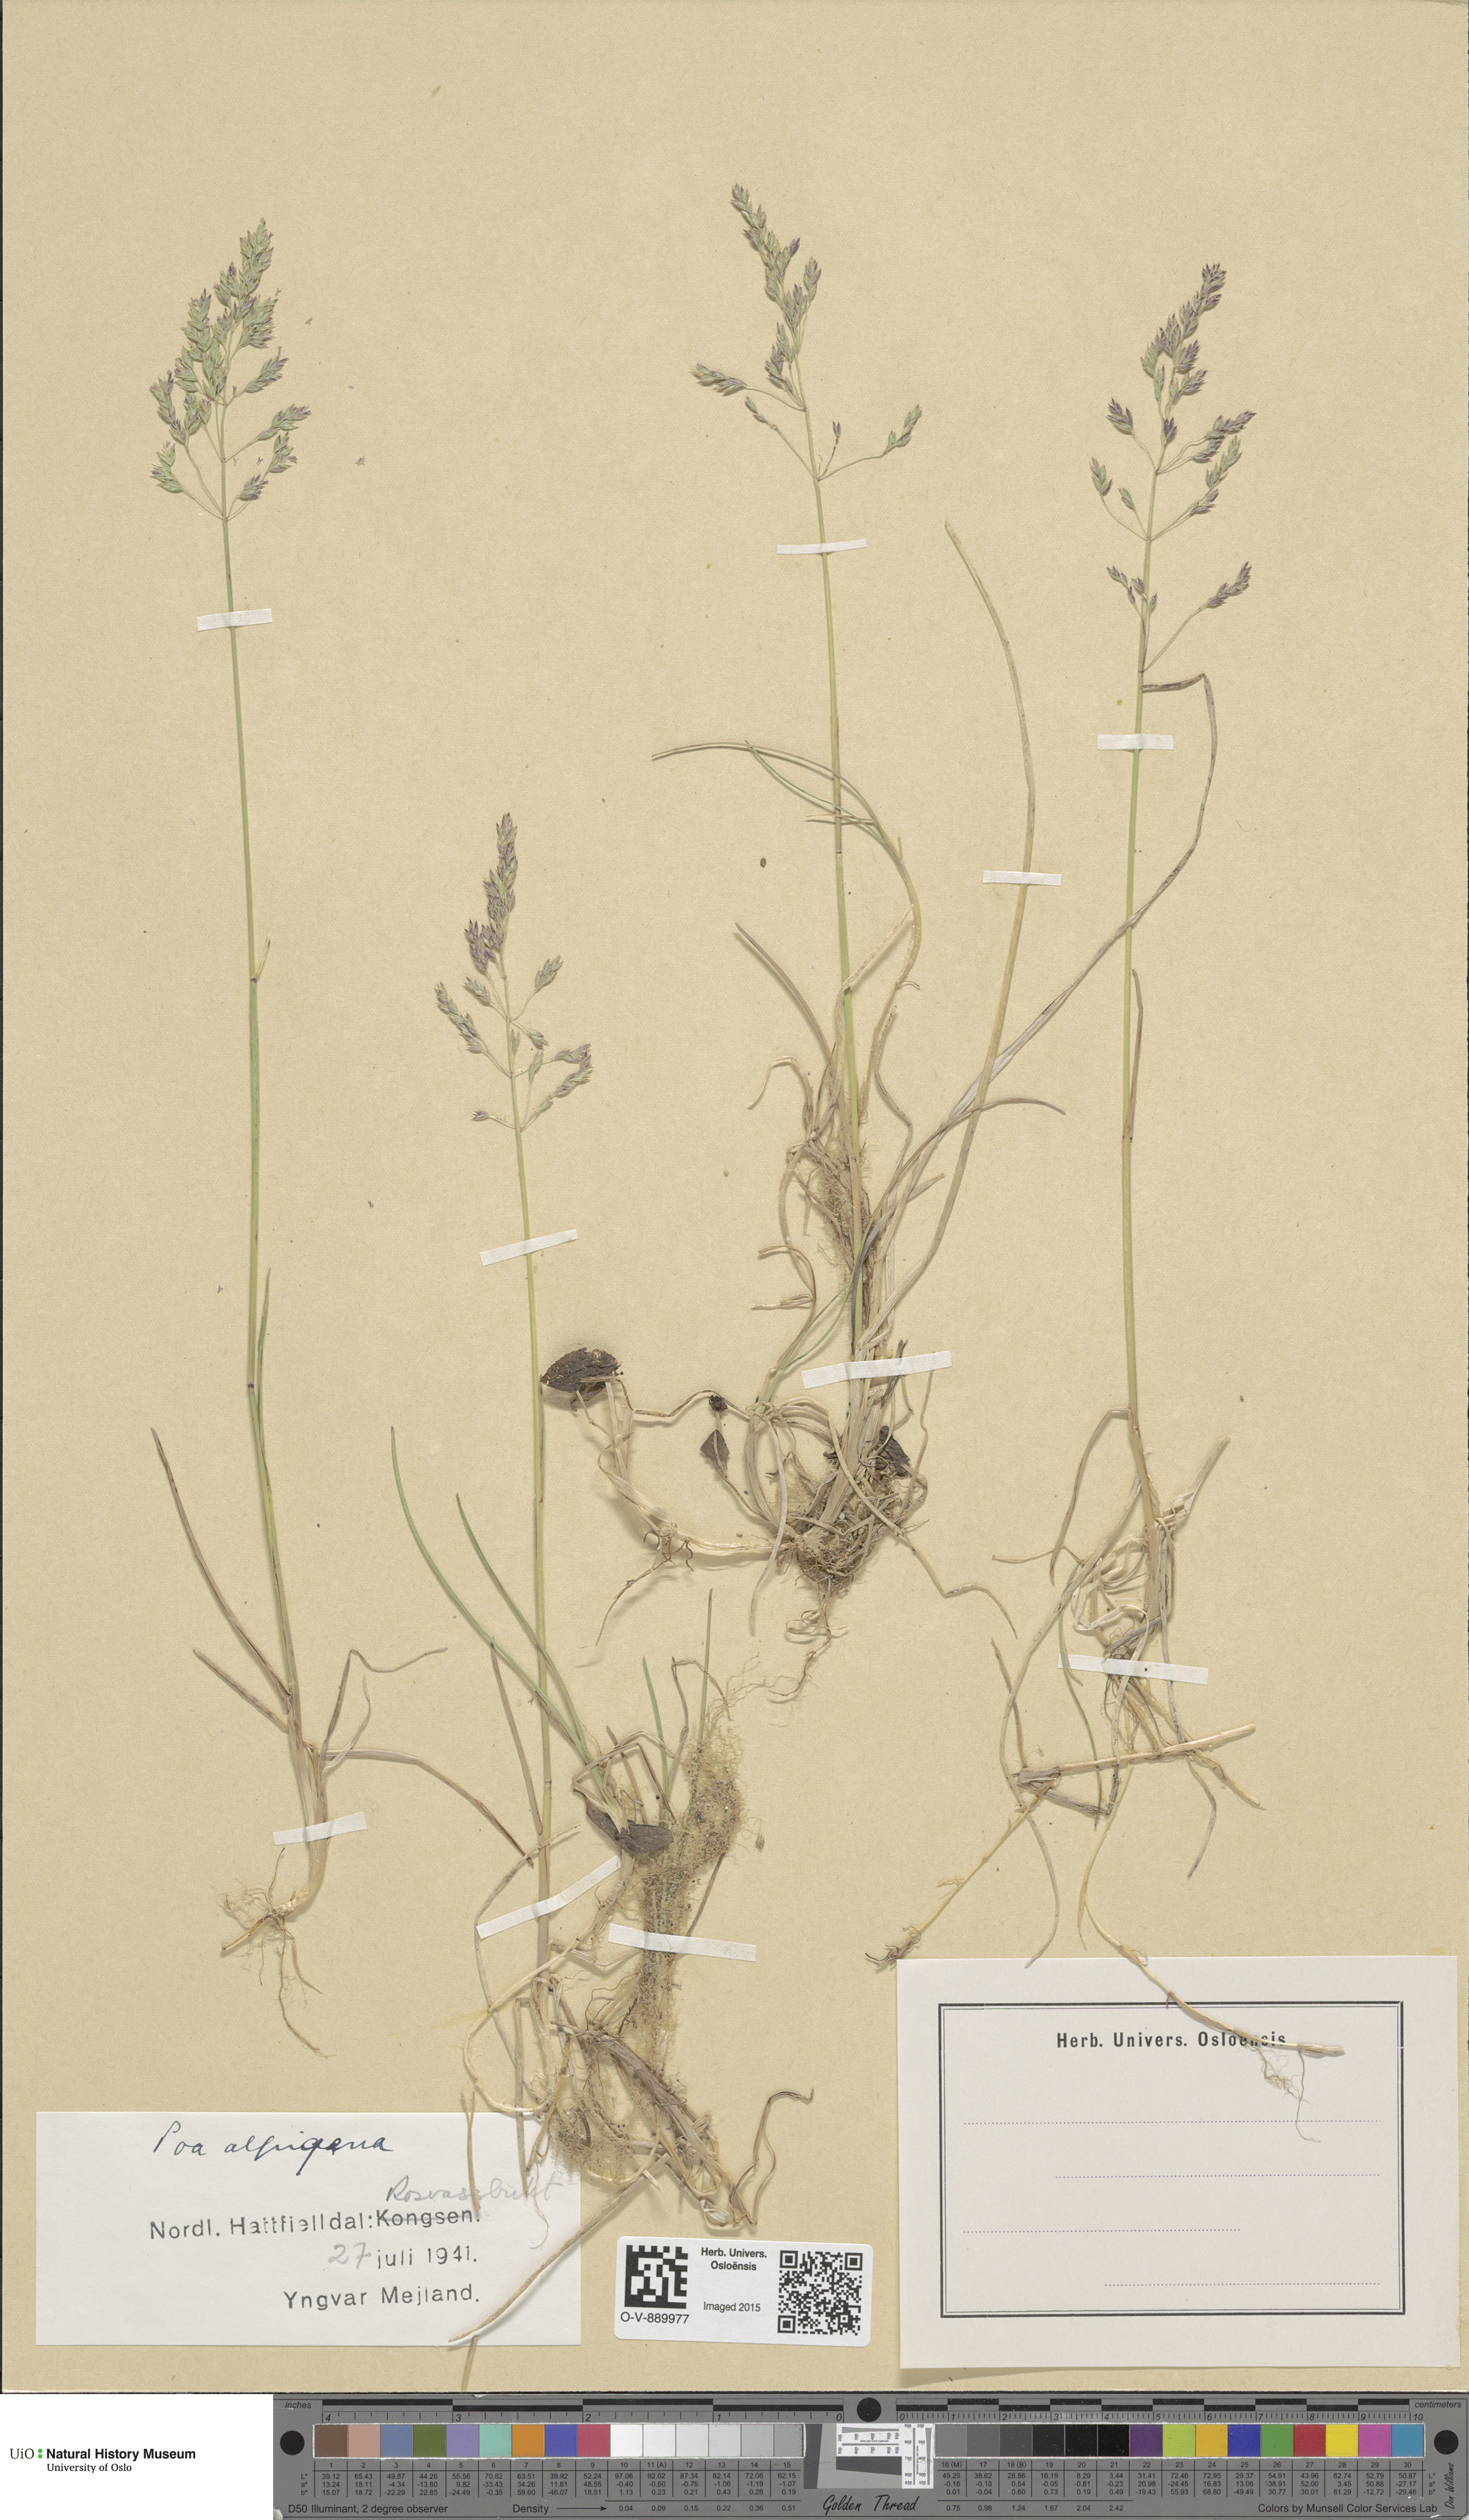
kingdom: Plantae
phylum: Tracheophyta
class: Liliopsida
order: Poales
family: Poaceae
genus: Poa
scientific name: Poa alpigena
